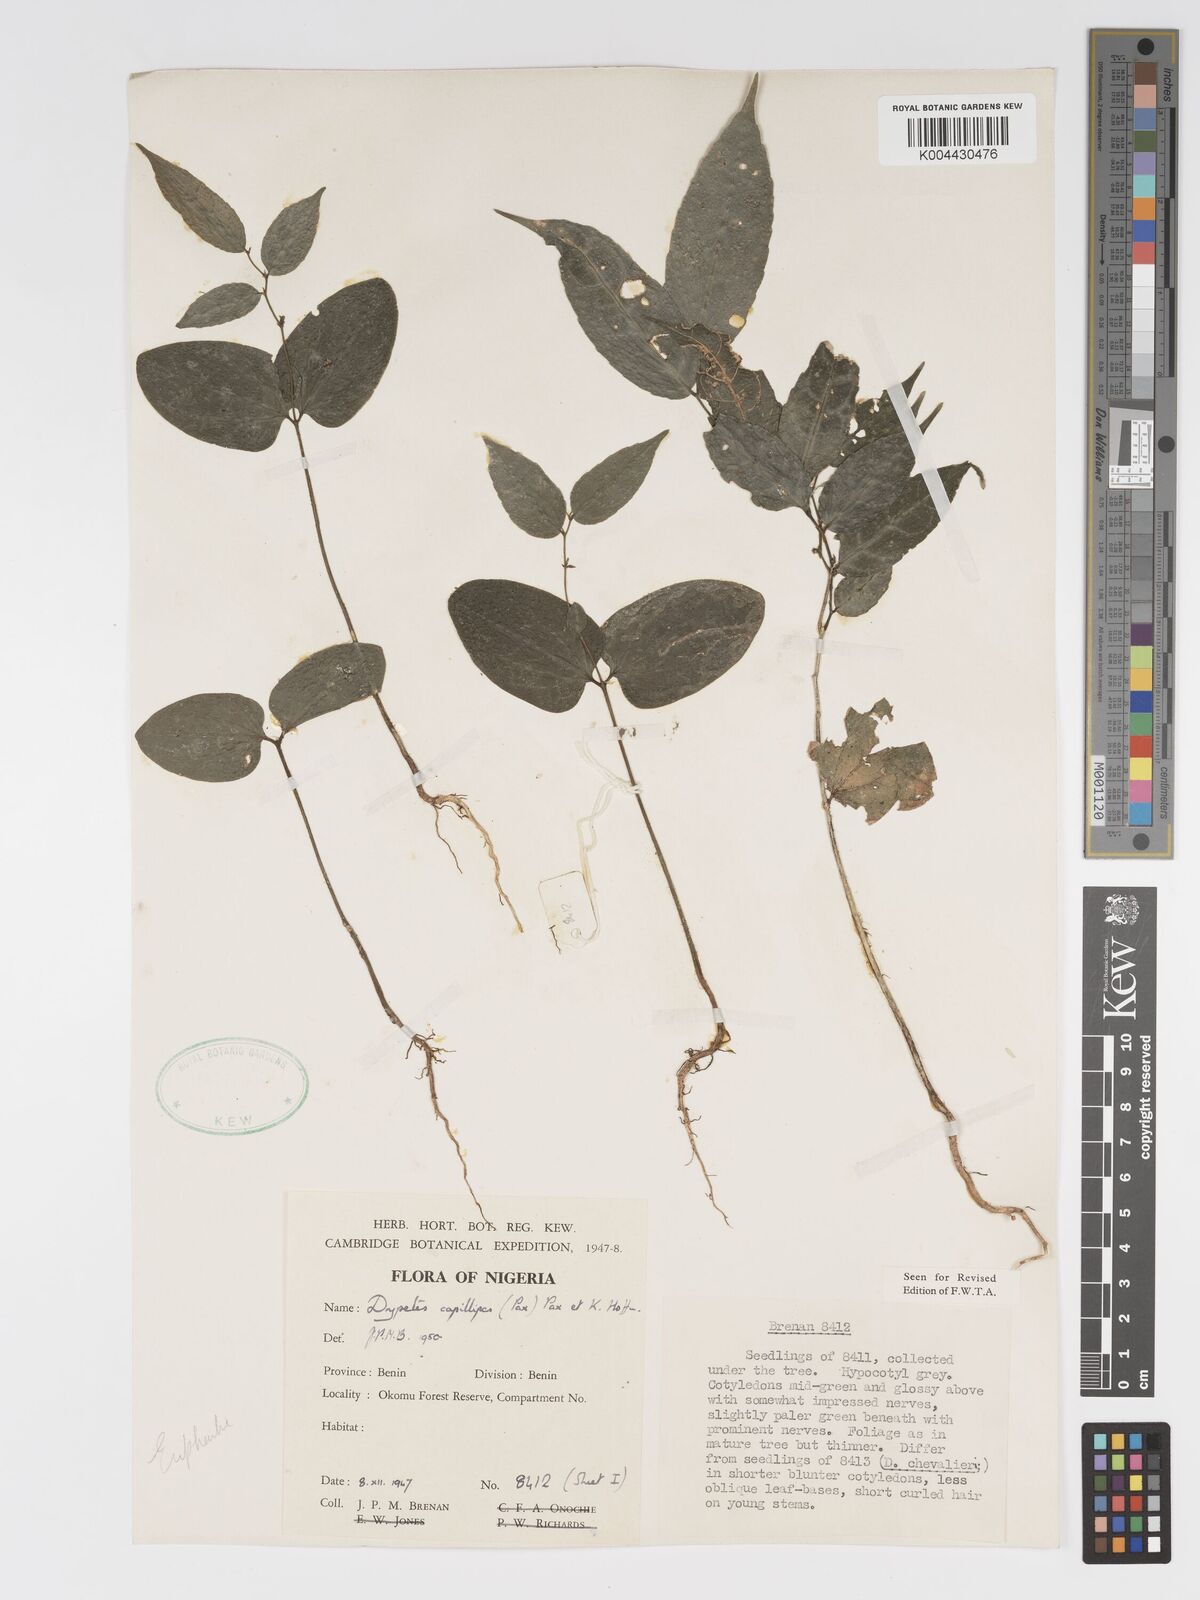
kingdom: Plantae
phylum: Tracheophyta
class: Magnoliopsida
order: Malpighiales
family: Putranjivaceae
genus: Drypetes
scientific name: Drypetes capillipes
